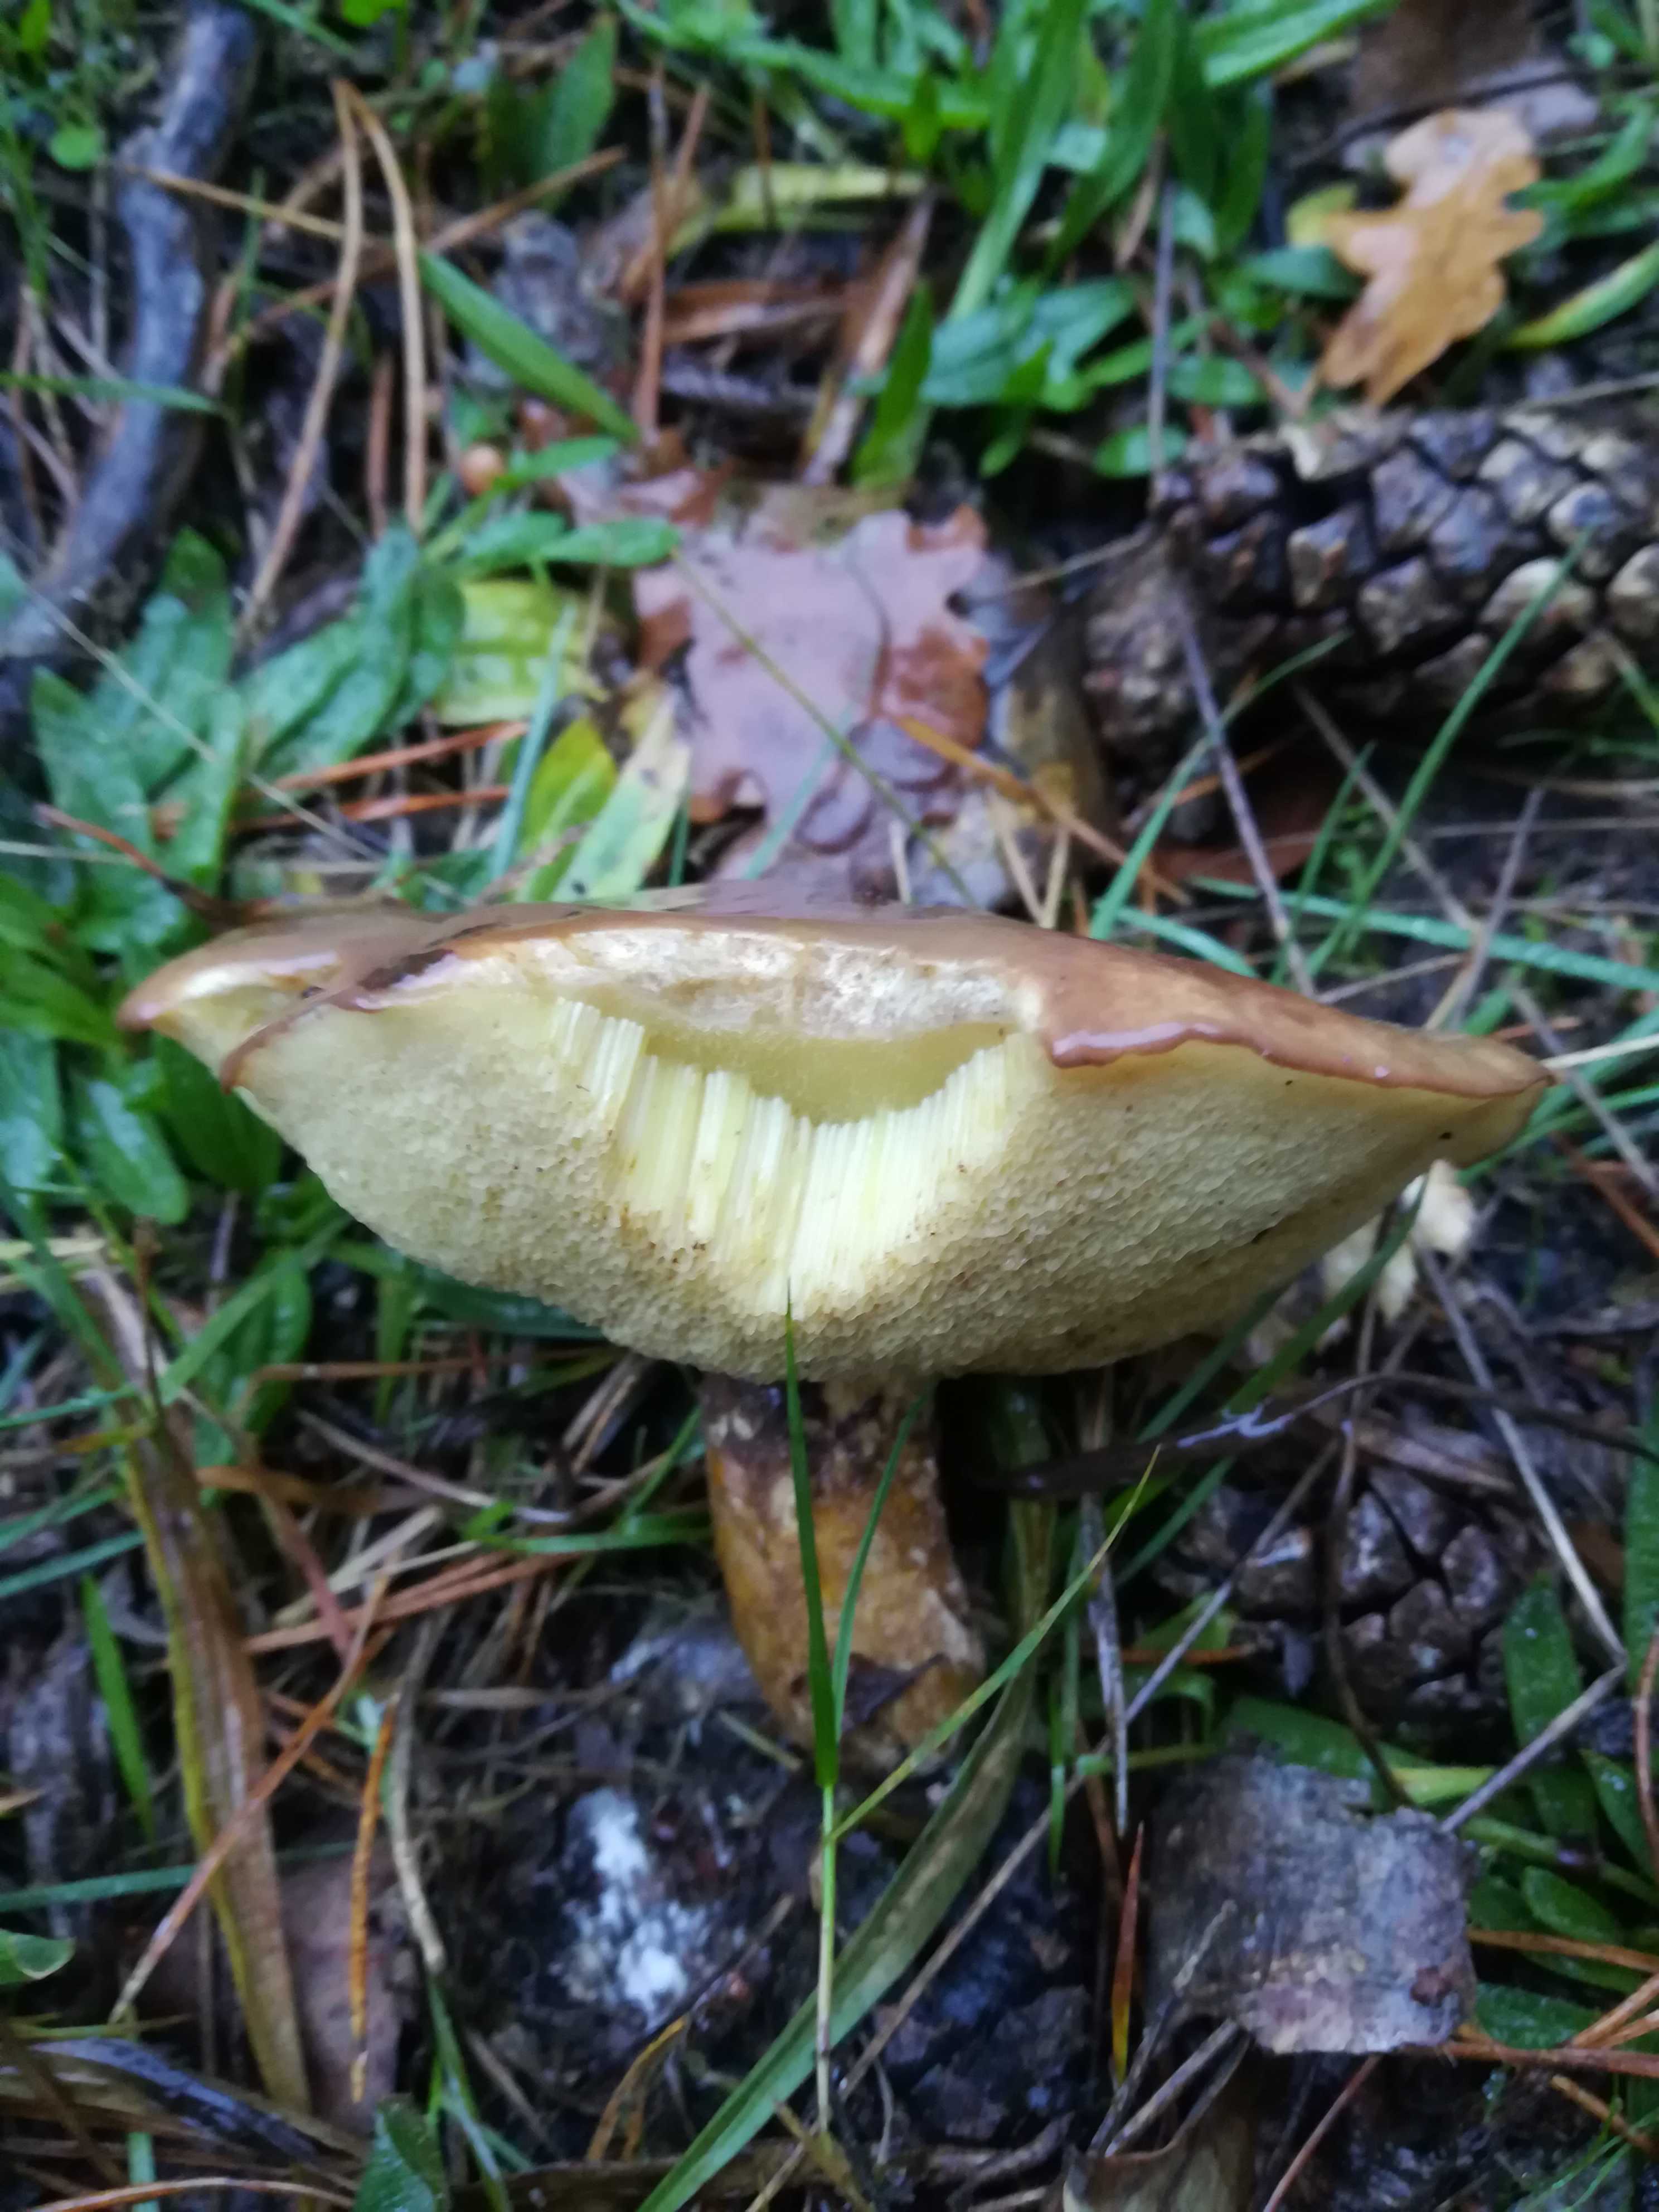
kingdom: Fungi
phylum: Basidiomycota
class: Agaricomycetes
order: Boletales
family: Suillaceae
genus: Suillus
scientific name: Suillus luteus
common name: brungul slimrørhat
